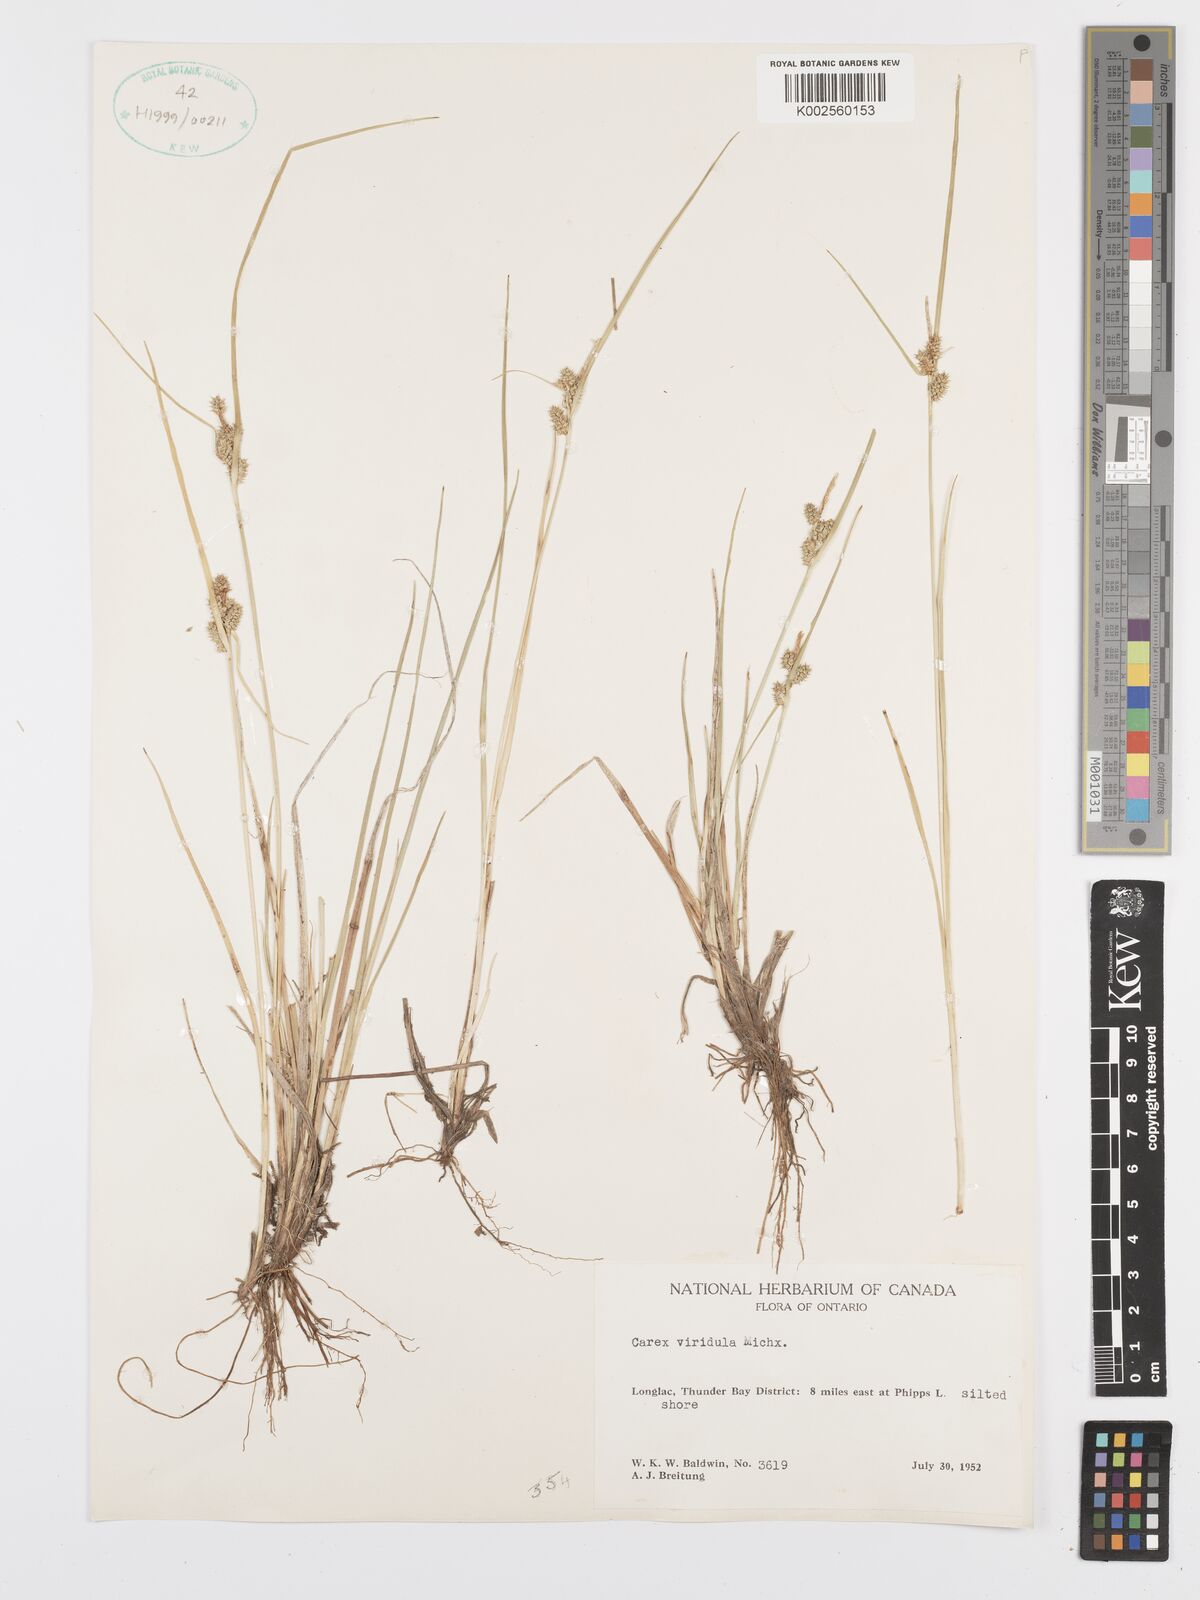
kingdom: Plantae
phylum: Tracheophyta
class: Liliopsida
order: Poales
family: Cyperaceae
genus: Carex
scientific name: Carex oederi
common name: Common & small-fruited yellow-sedge
